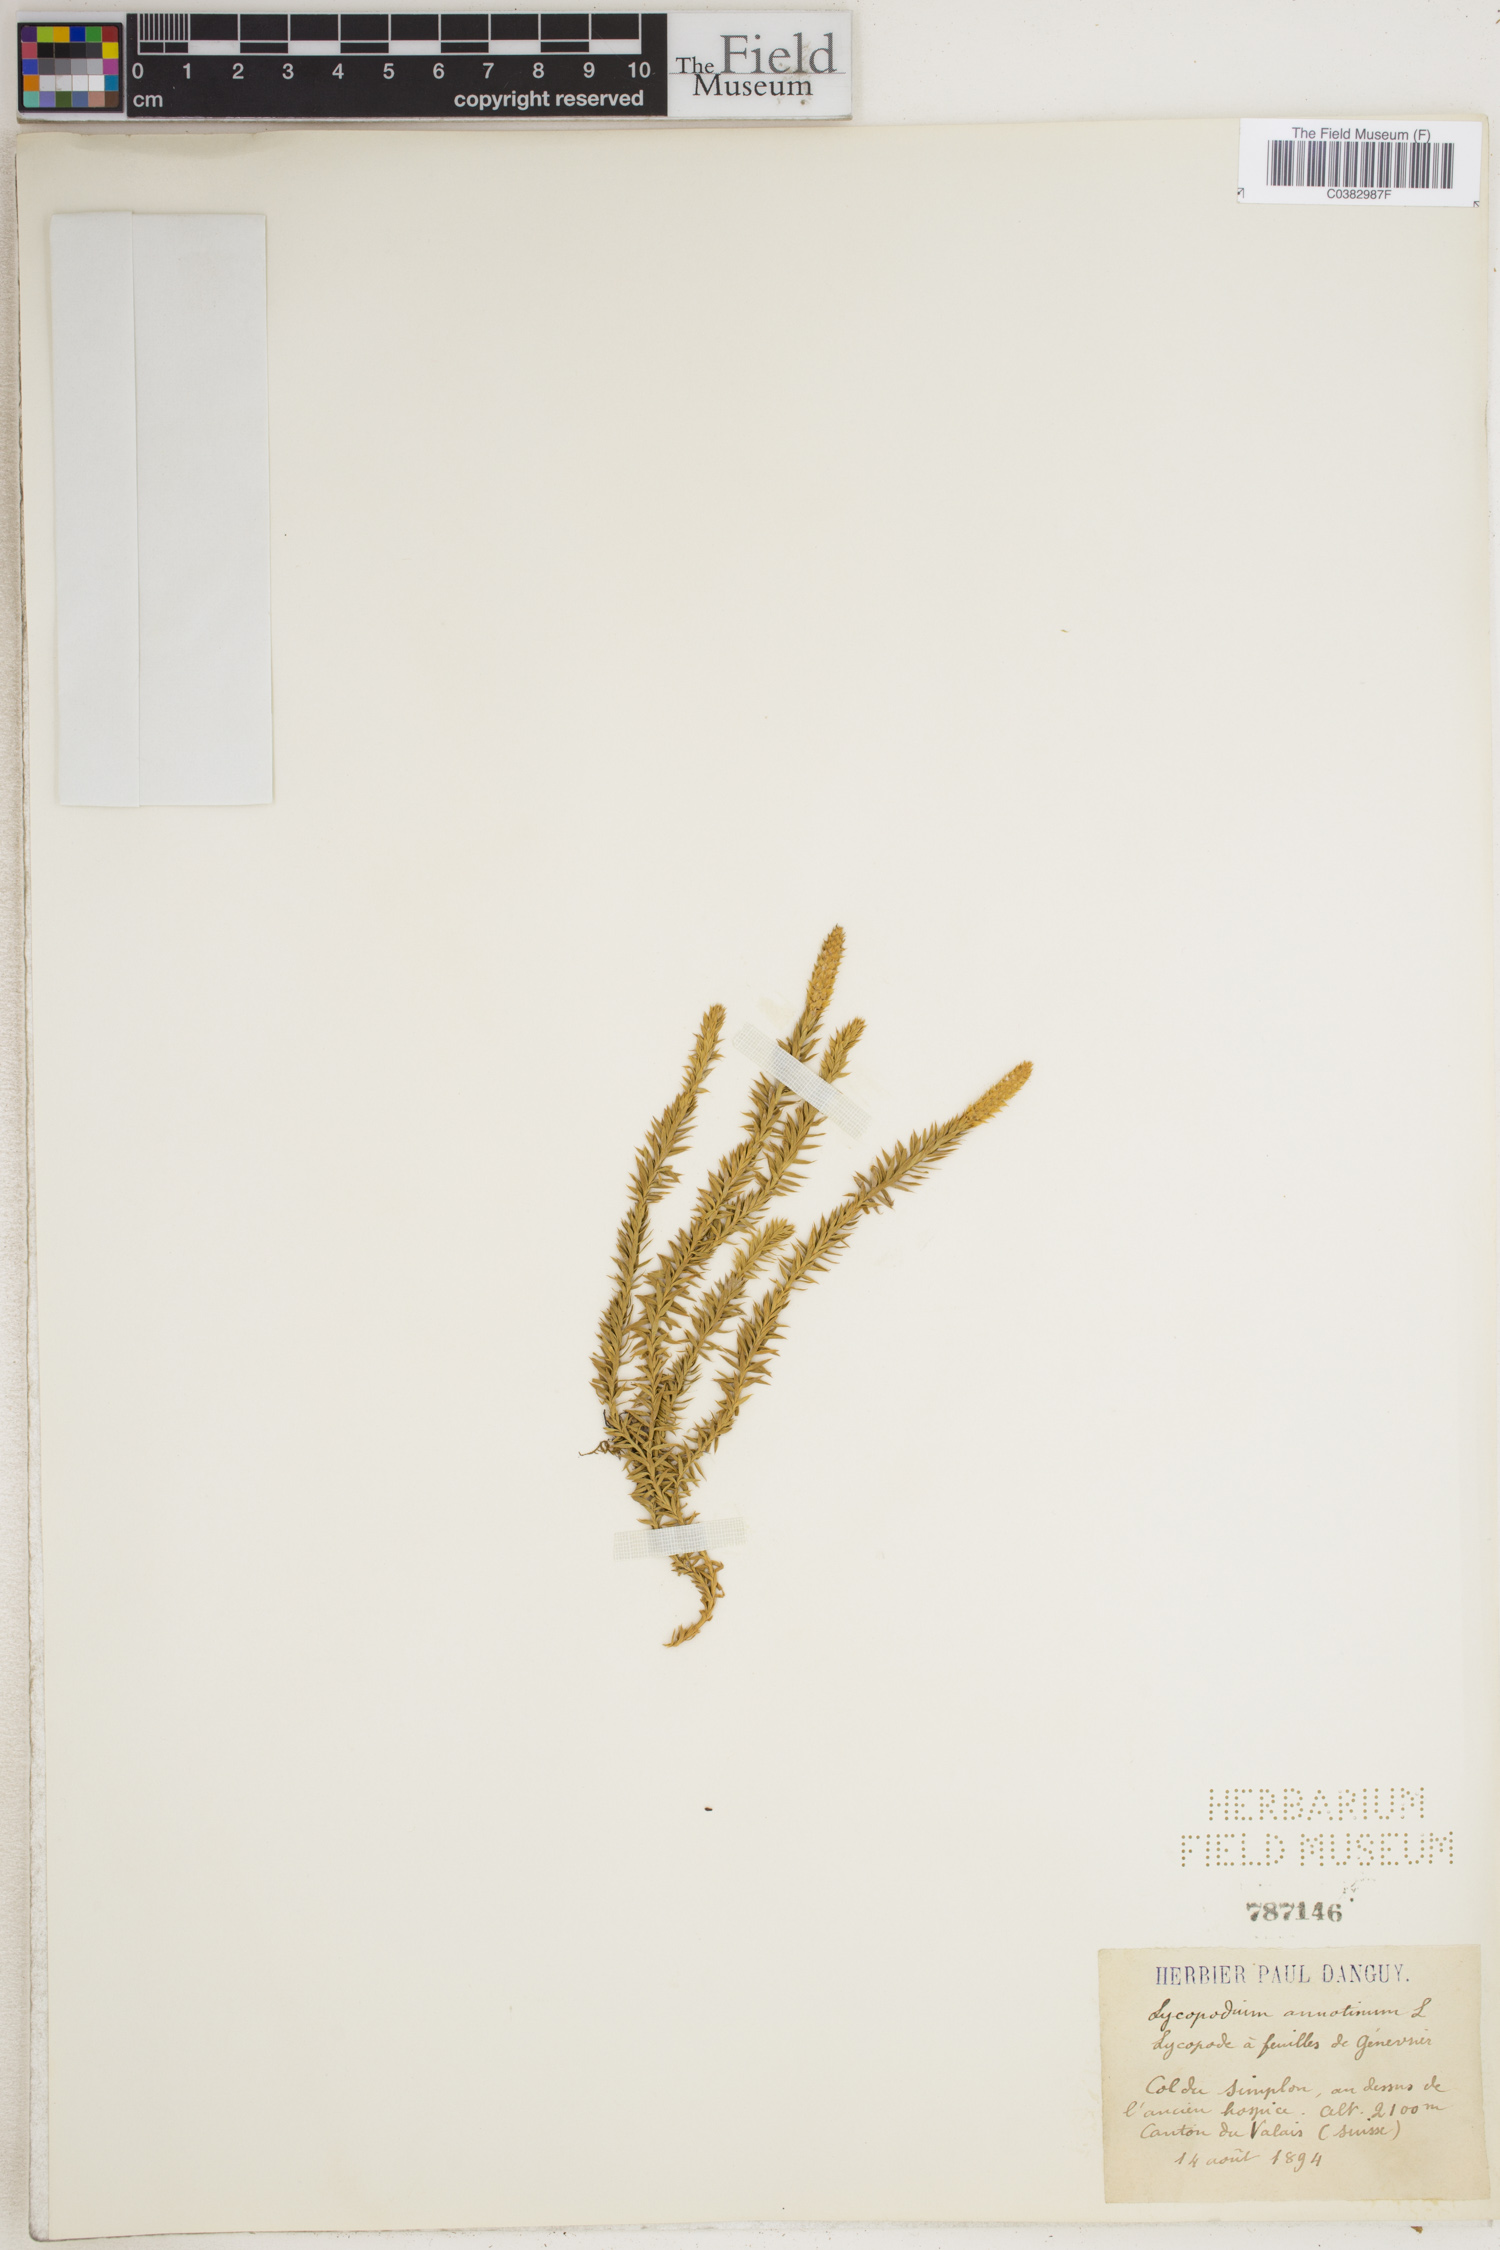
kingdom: Plantae
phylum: Tracheophyta
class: Lycopodiopsida
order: Lycopodiales
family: Lycopodiaceae
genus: Spinulum
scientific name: Spinulum annotinum
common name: Interrupted club-moss
